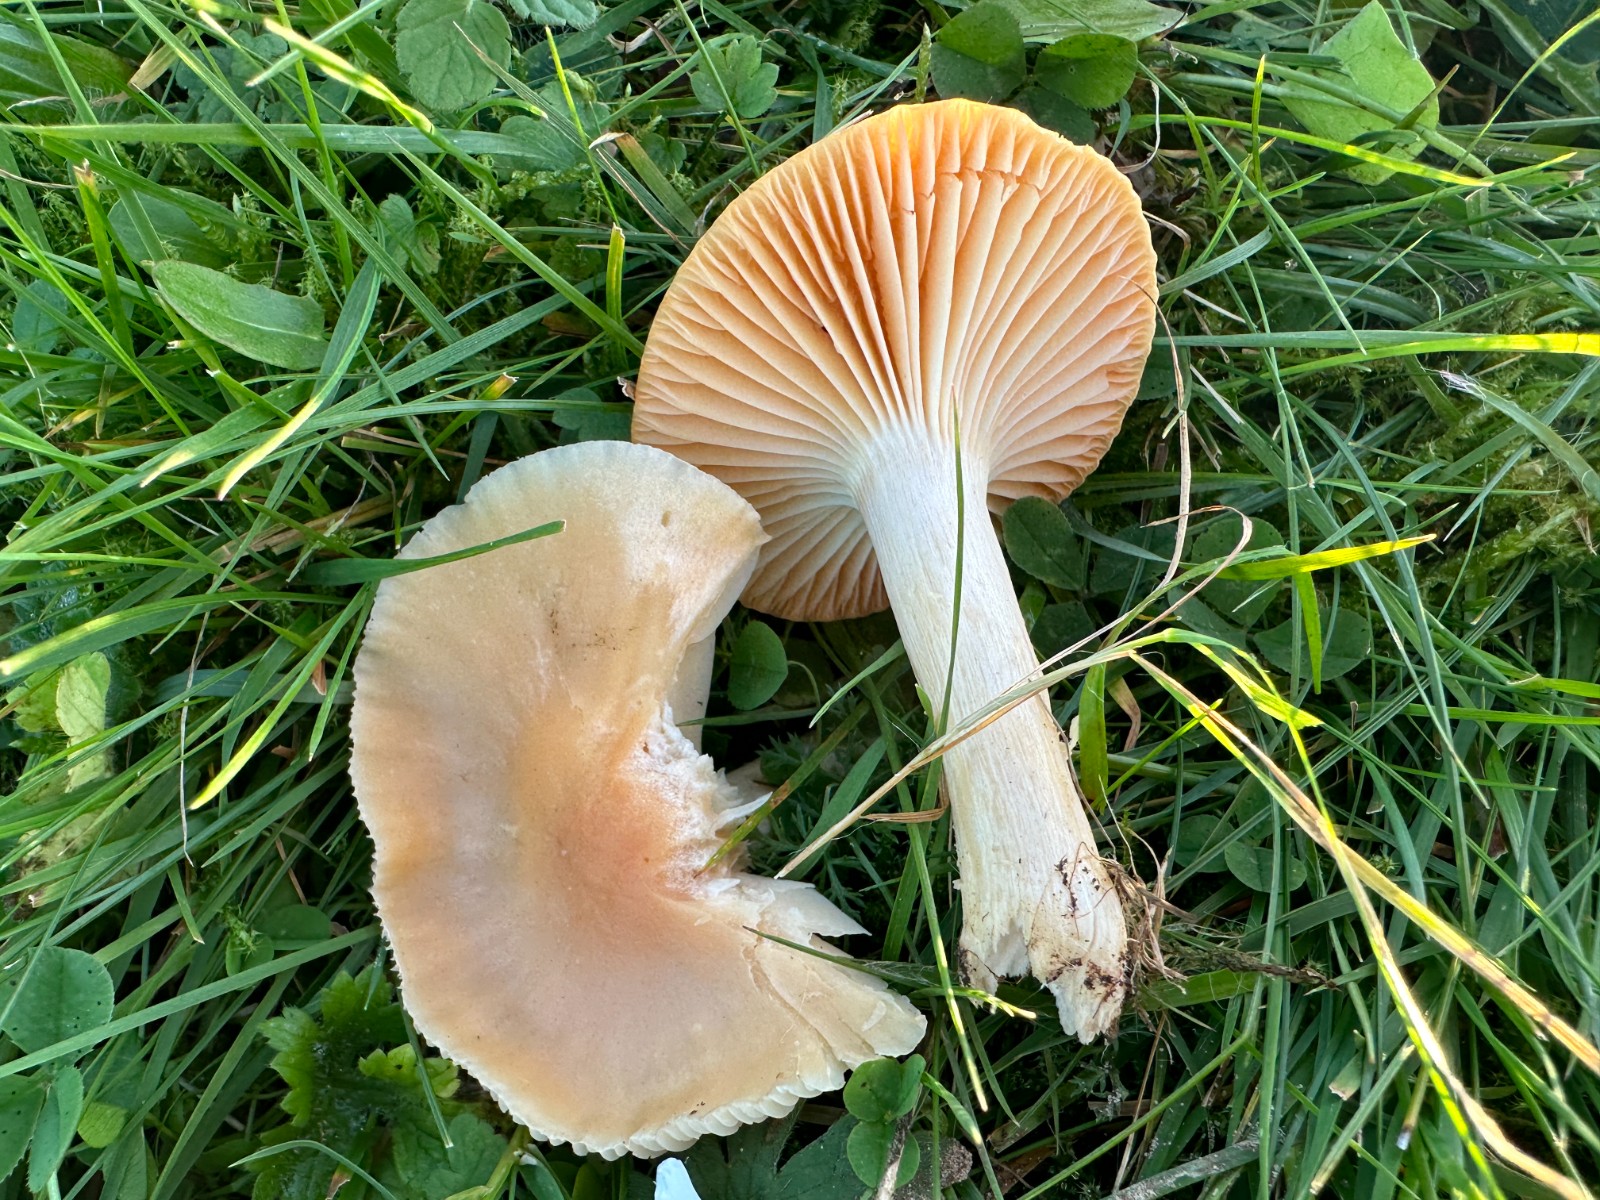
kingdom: Fungi
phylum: Basidiomycota
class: Agaricomycetes
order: Agaricales
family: Hygrophoraceae
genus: Cuphophyllus
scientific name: Cuphophyllus pratensis
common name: eng-vokshat
